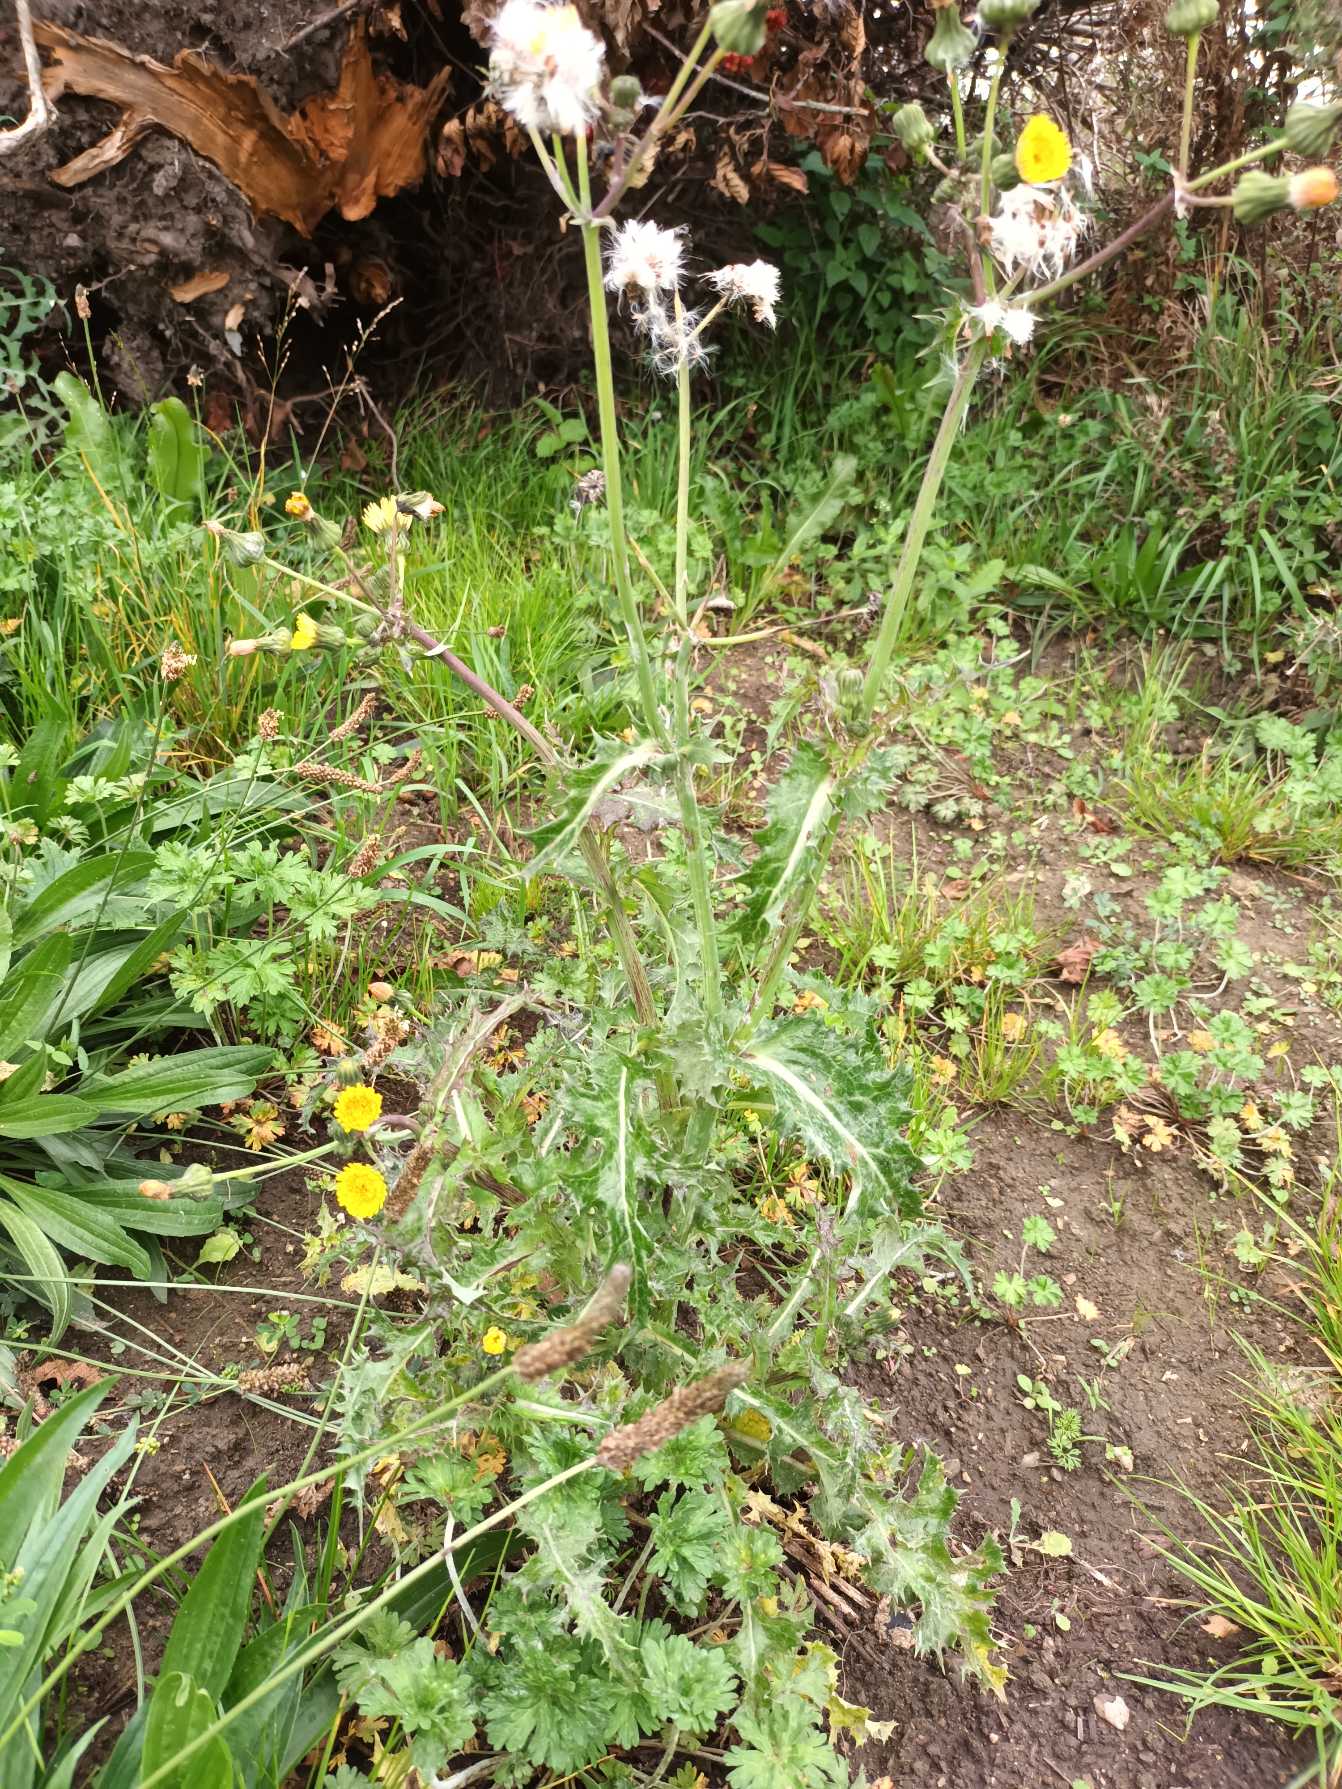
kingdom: Plantae
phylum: Tracheophyta
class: Magnoliopsida
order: Asterales
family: Asteraceae
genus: Sonchus
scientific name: Sonchus asper
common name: Ru svinemælk
